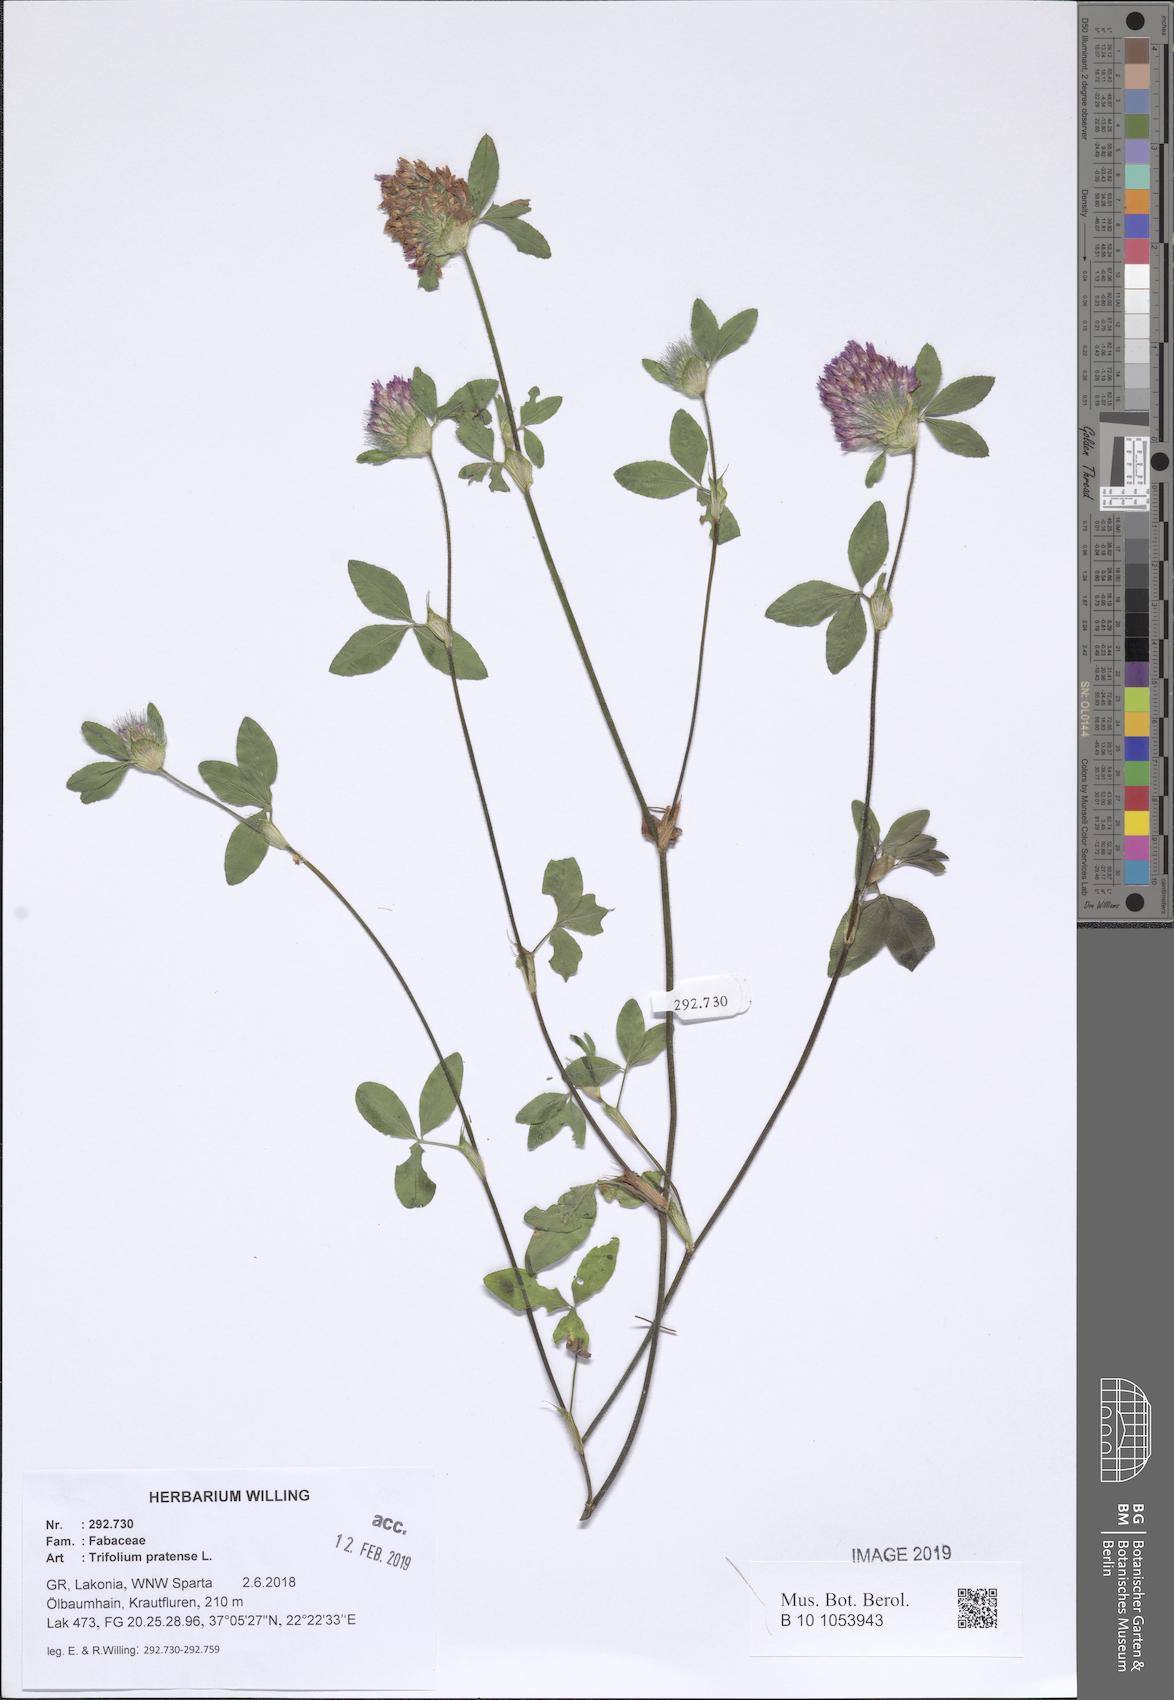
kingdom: Plantae
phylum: Tracheophyta
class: Magnoliopsida
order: Fabales
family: Fabaceae
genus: Trifolium
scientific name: Trifolium pratense
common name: Red clover
